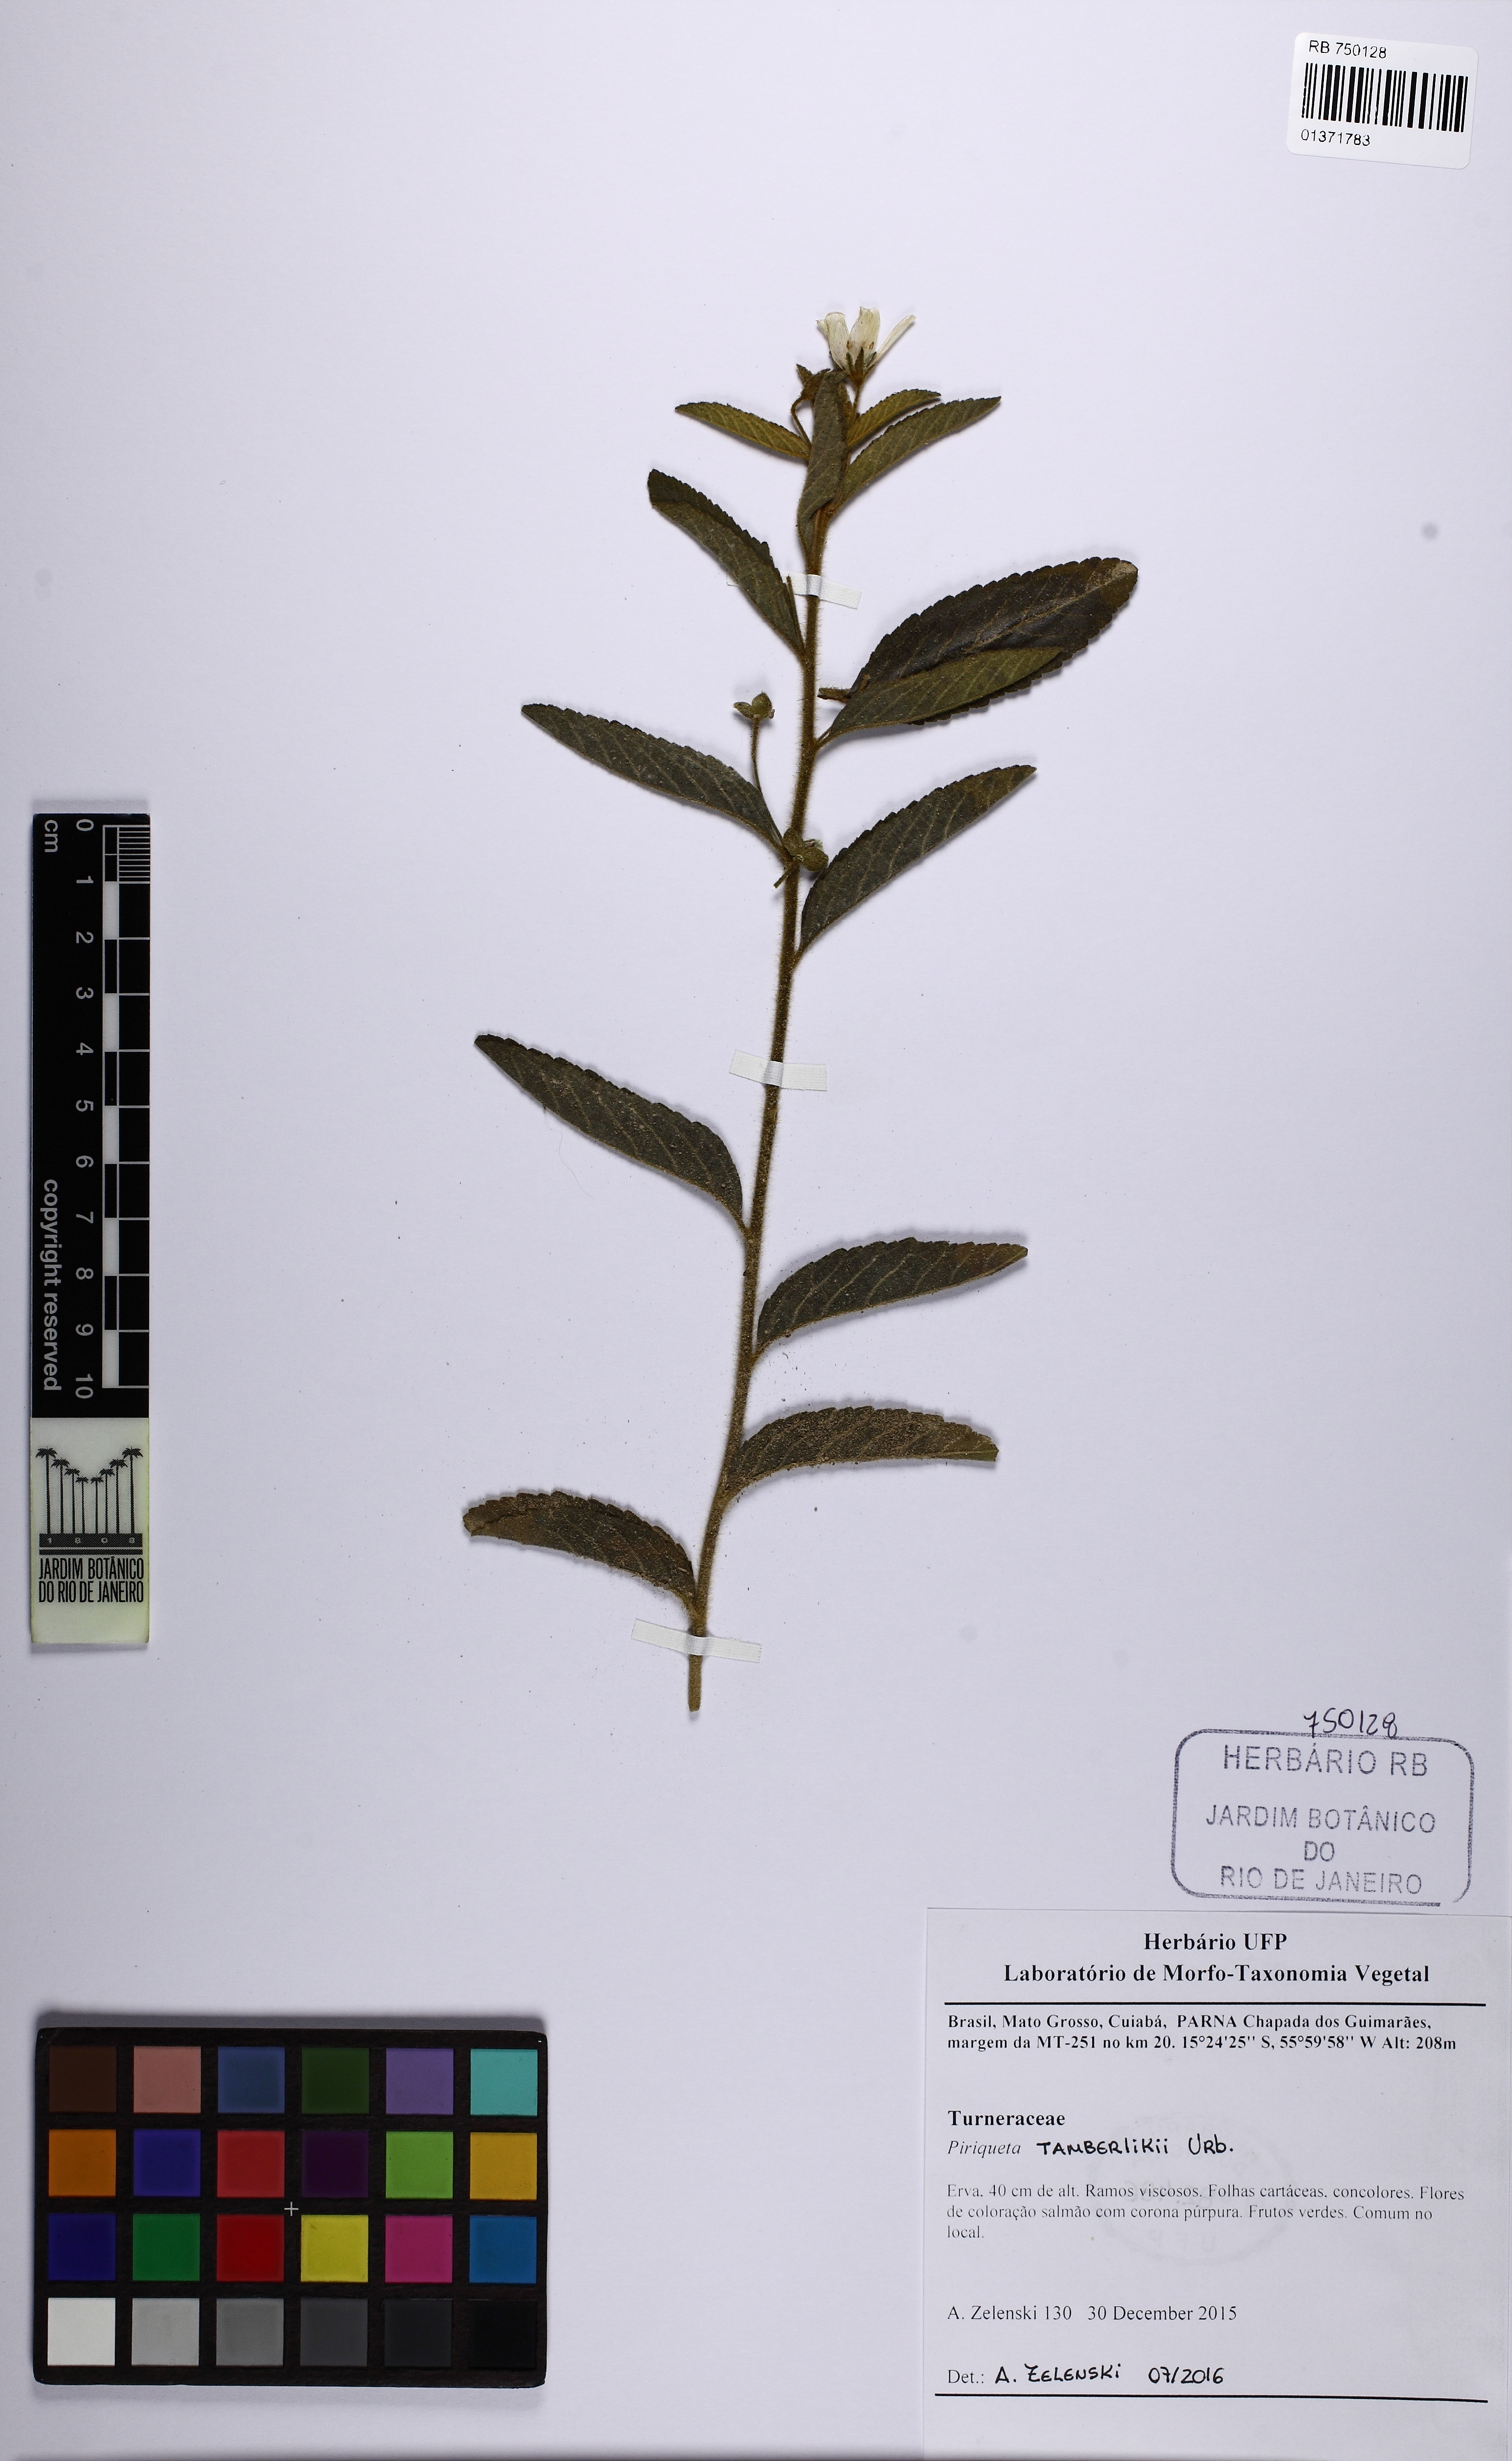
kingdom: Plantae
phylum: Tracheophyta
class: Magnoliopsida
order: Malpighiales
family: Turneraceae
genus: Piriqueta
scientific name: Piriqueta tamberlikii
